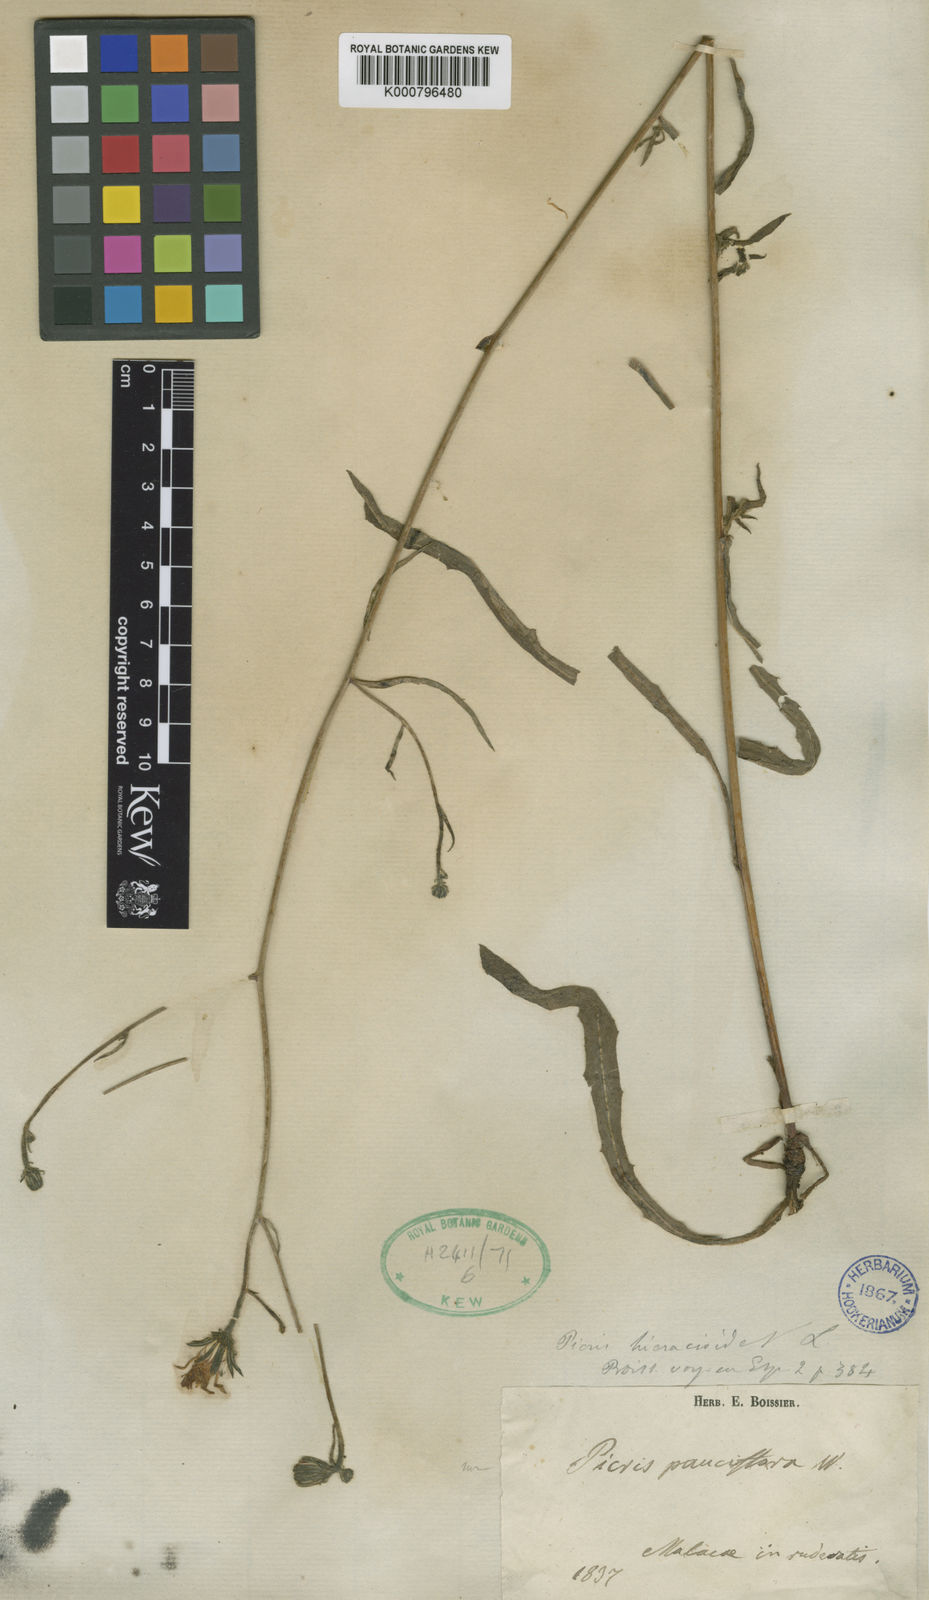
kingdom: Plantae
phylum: Tracheophyta
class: Magnoliopsida
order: Asterales
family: Asteraceae
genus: Picris
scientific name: Picris hieracioides
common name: Hawkweed oxtongue
